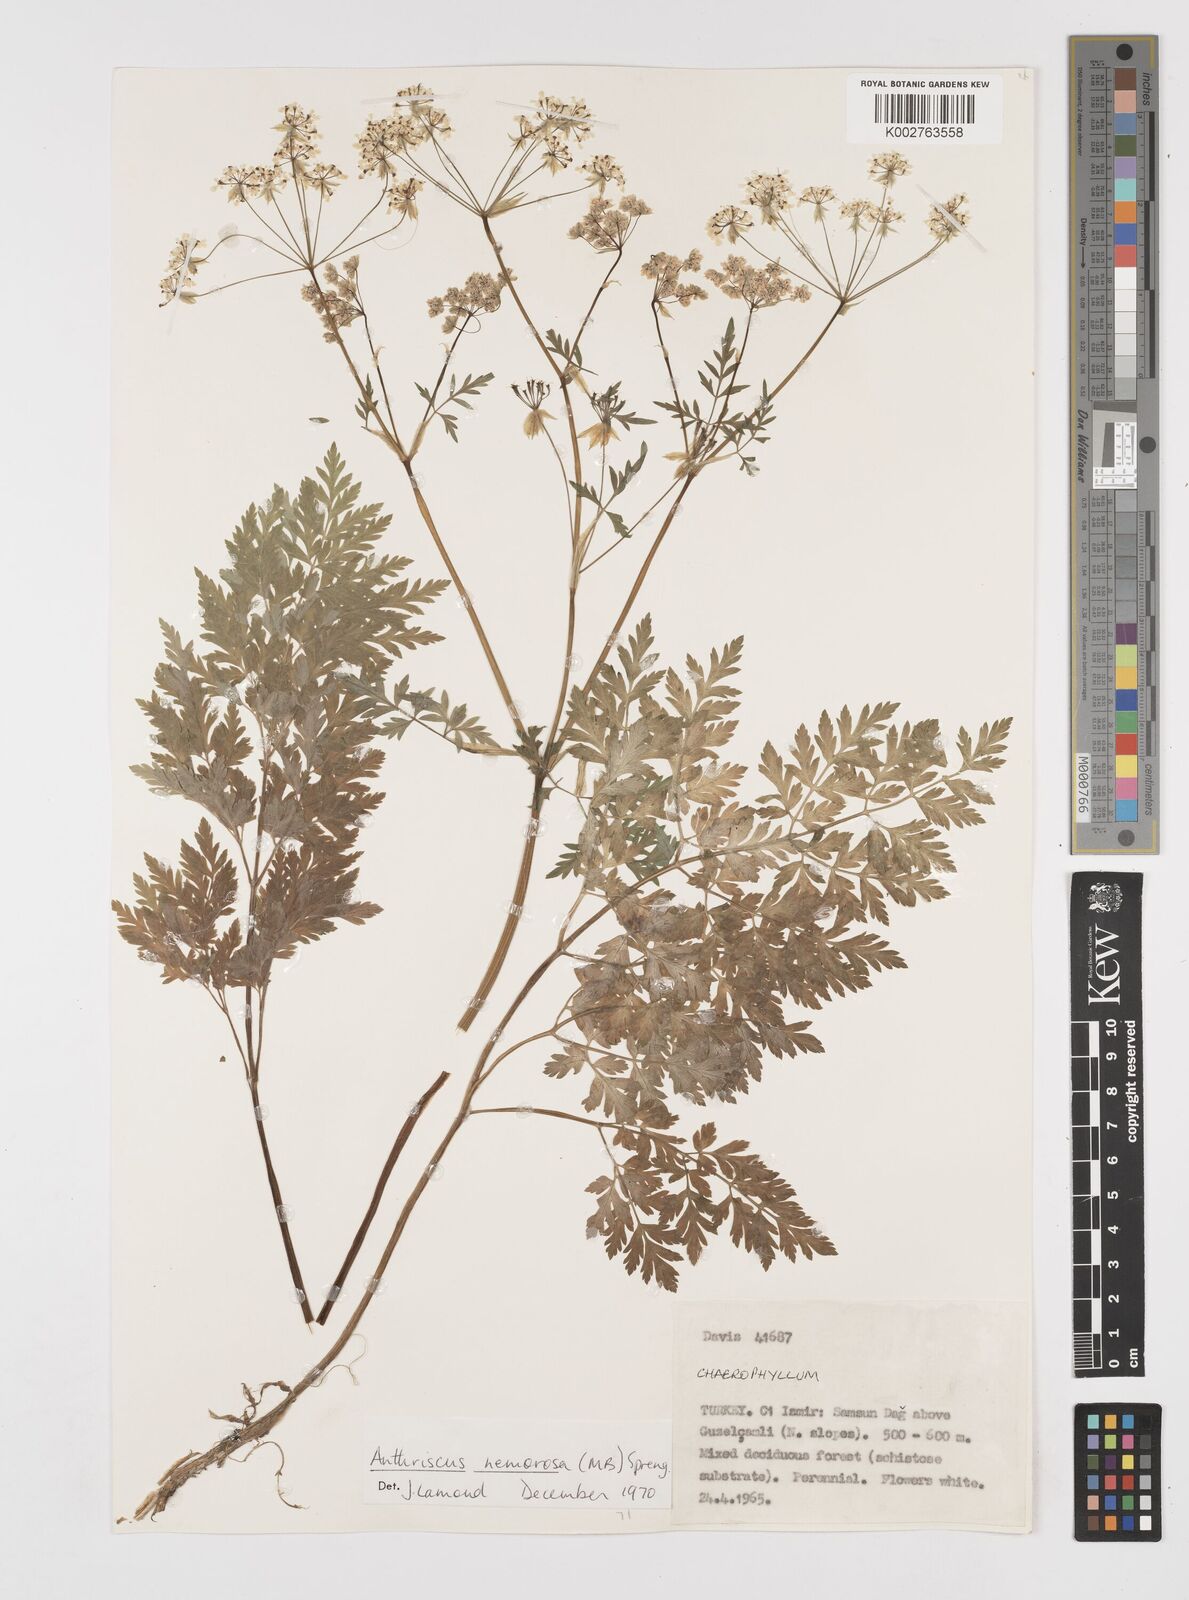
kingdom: Plantae
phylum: Tracheophyta
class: Magnoliopsida
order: Apiales
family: Apiaceae
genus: Anthriscus
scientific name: Anthriscus sylvestris
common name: Cow parsley
